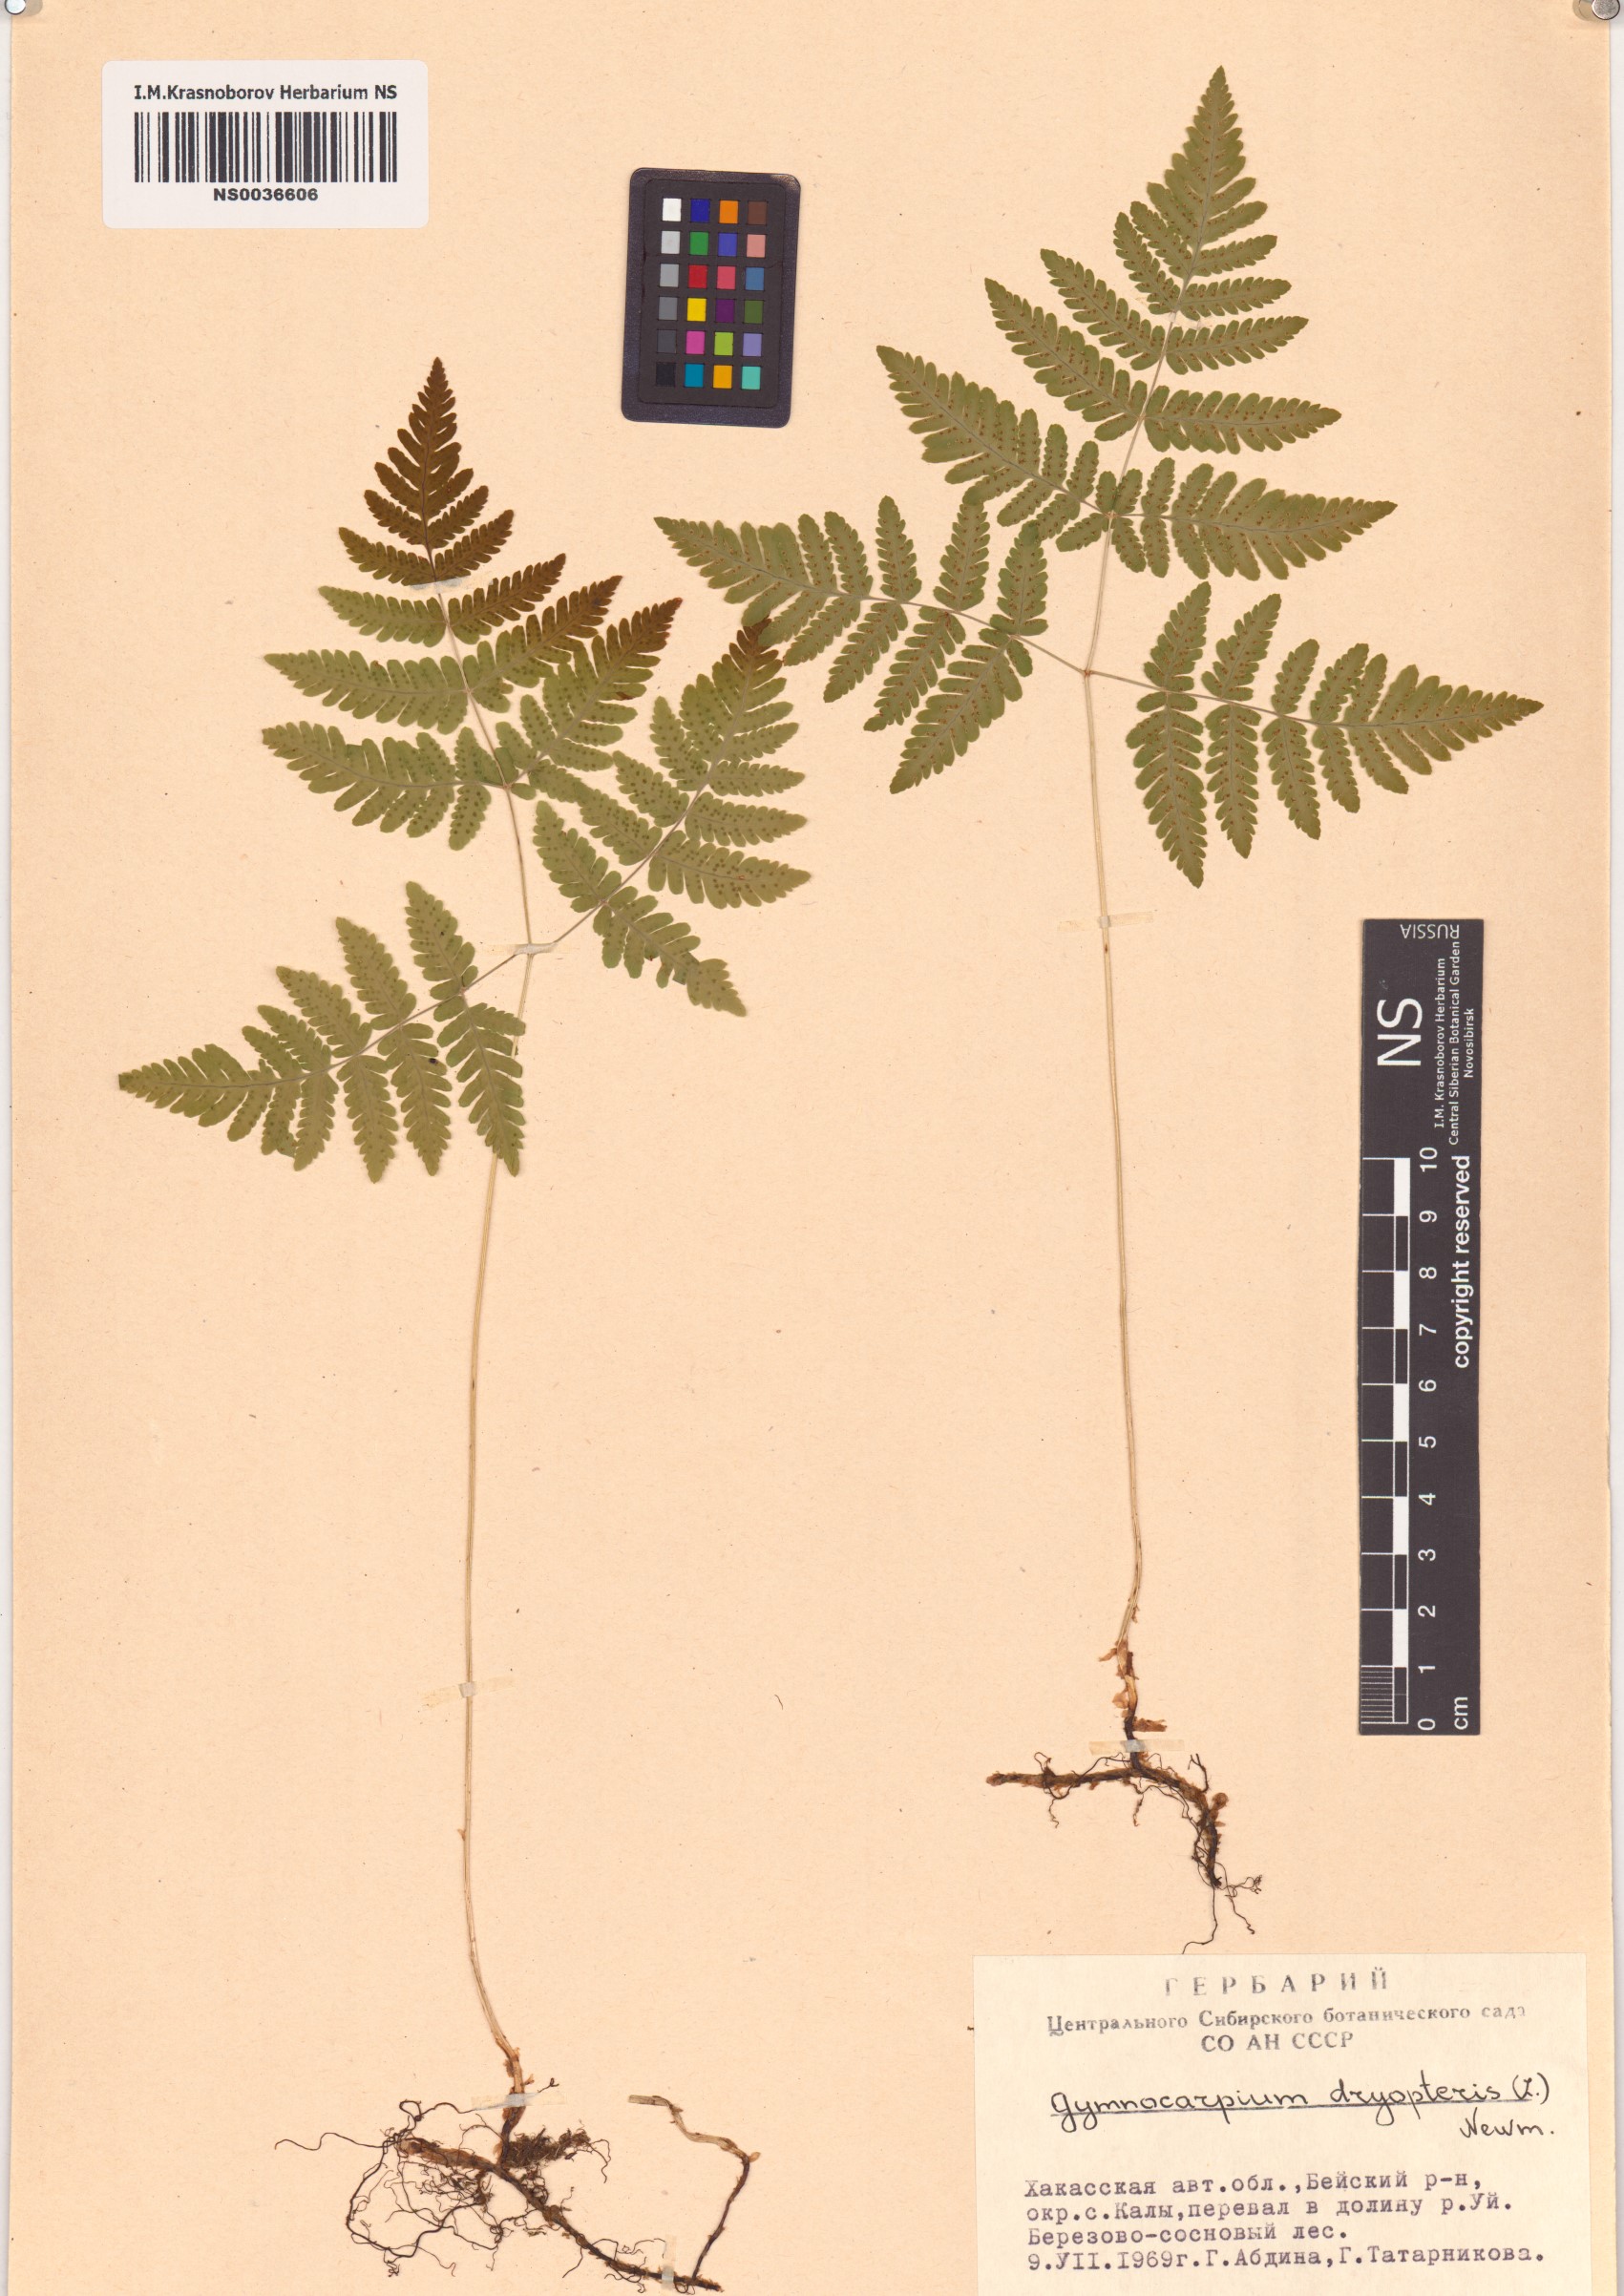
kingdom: Plantae
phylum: Tracheophyta
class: Polypodiopsida
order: Polypodiales
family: Cystopteridaceae
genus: Gymnocarpium
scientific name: Gymnocarpium dryopteris
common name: Oak fern
